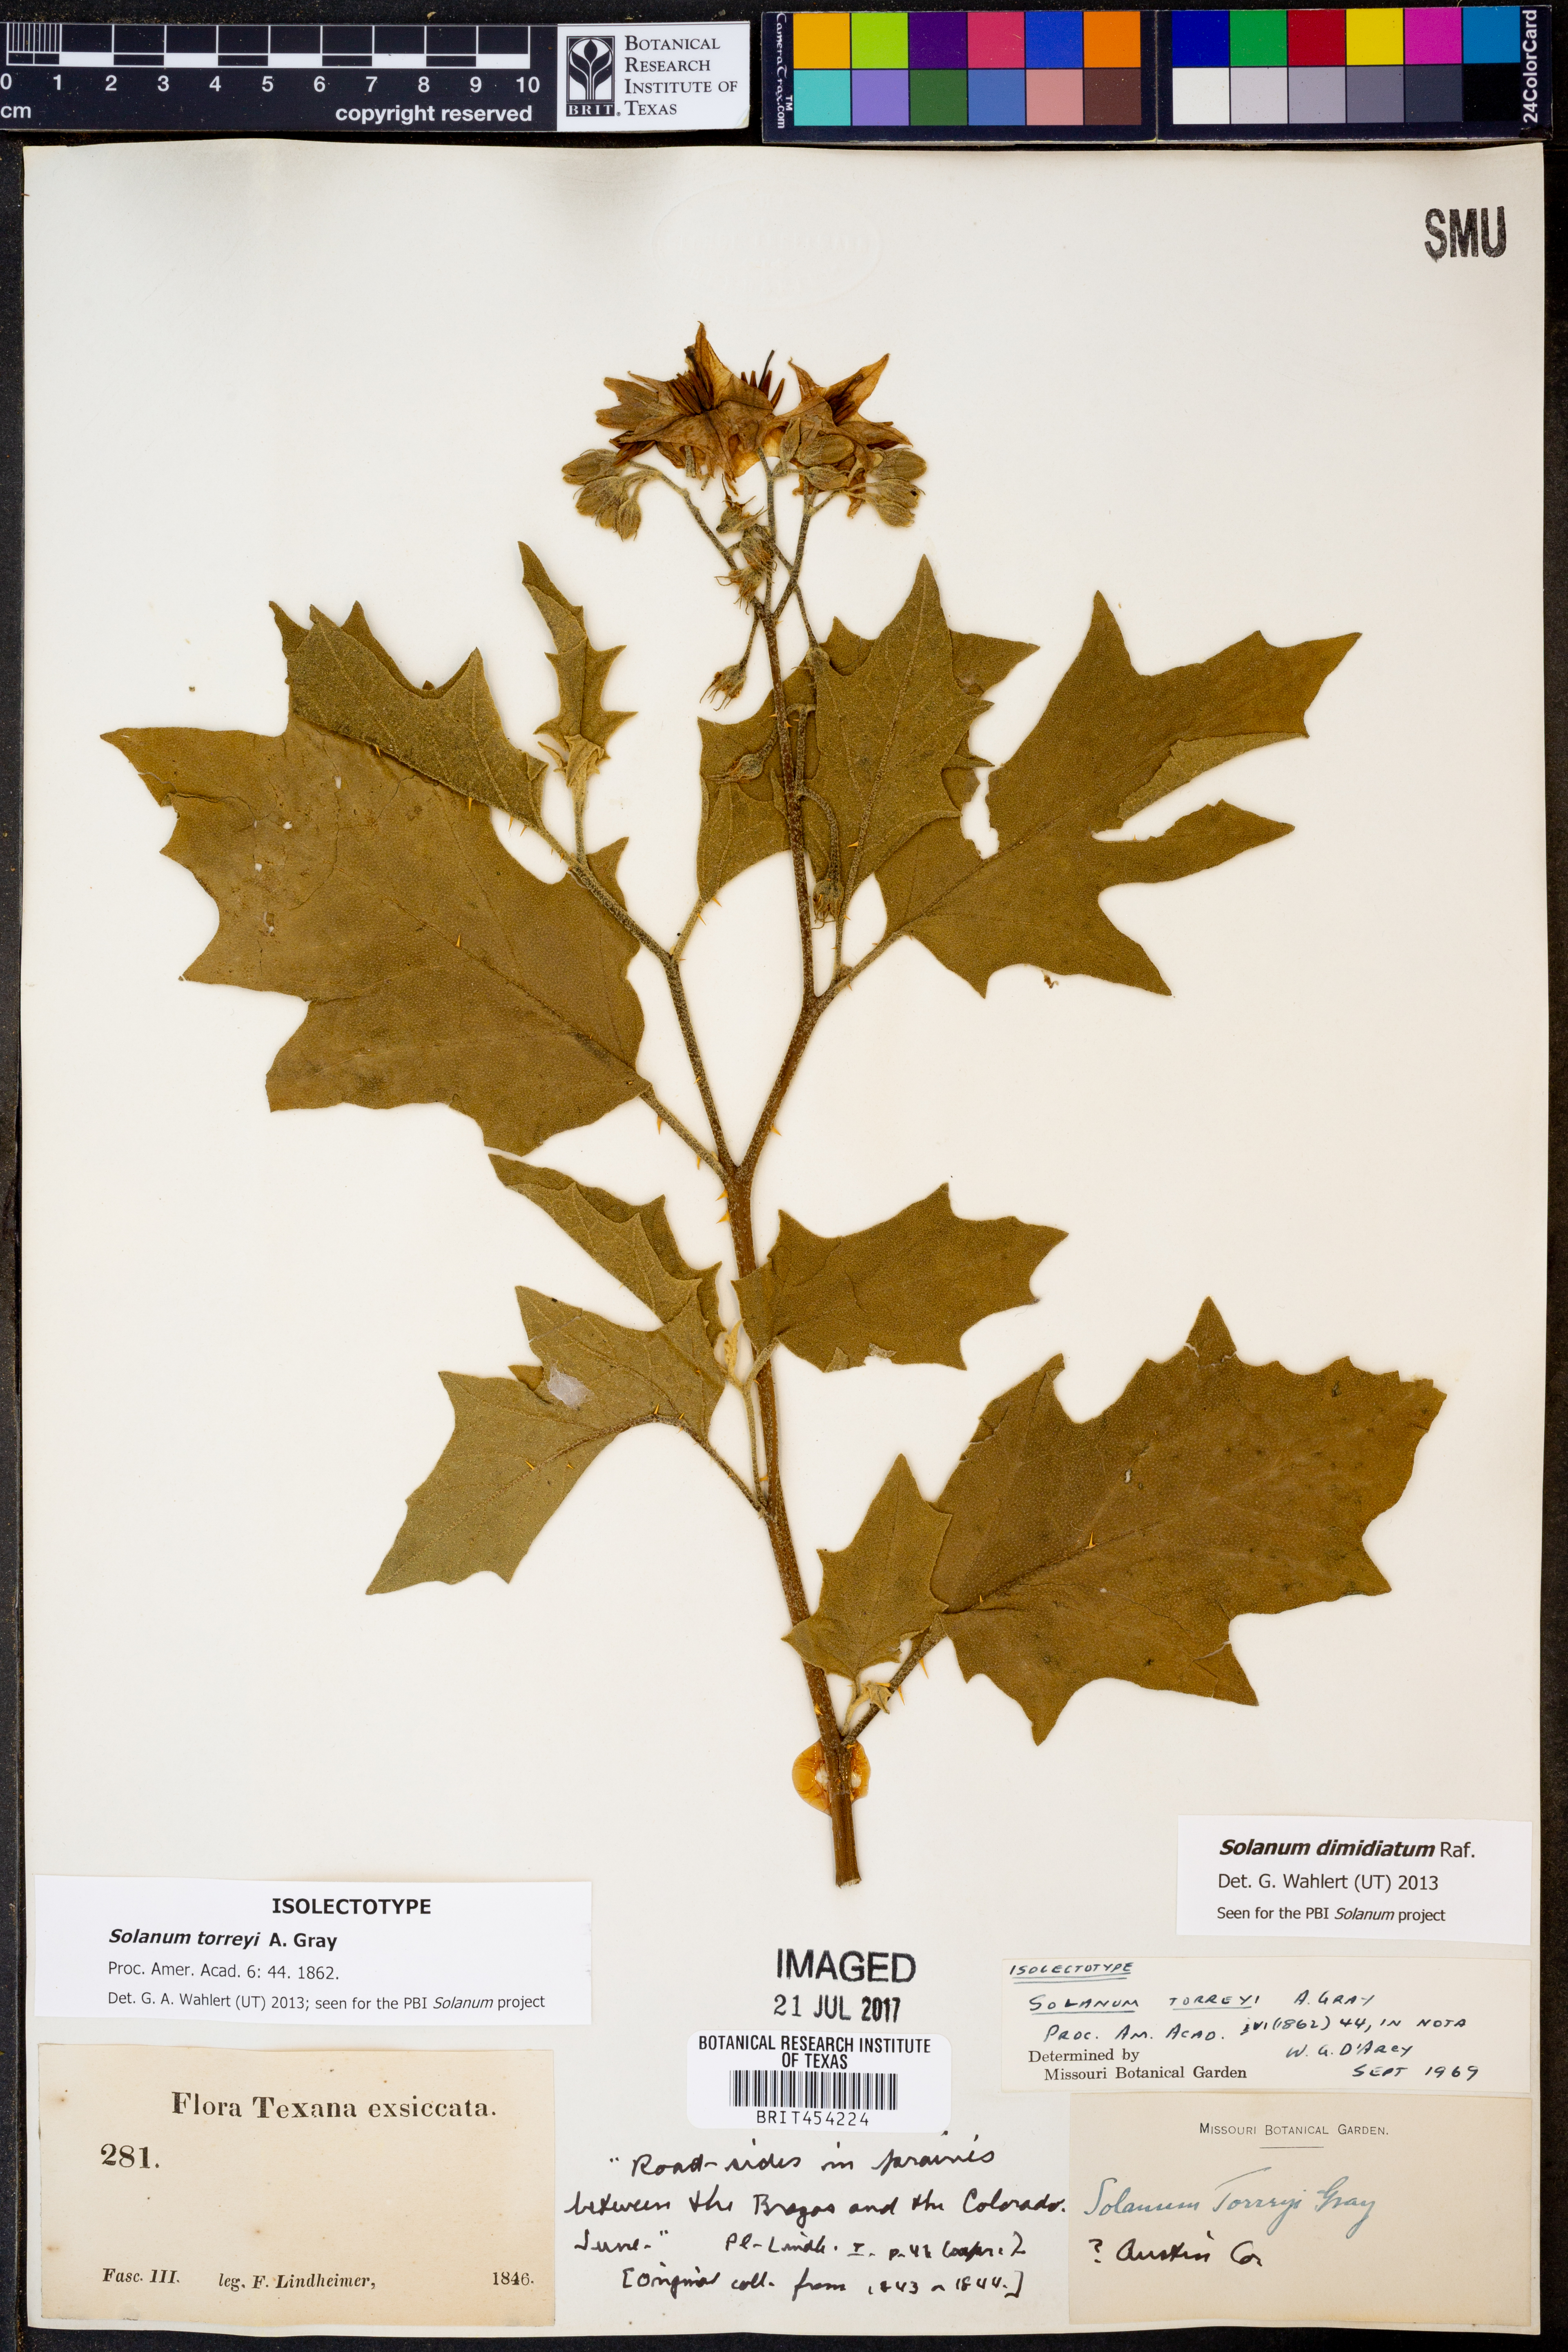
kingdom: Plantae
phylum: Tracheophyta
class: Magnoliopsida
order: Solanales
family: Solanaceae
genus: Solanum
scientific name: Solanum dimidiatum
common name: Carolina horse-nettle
